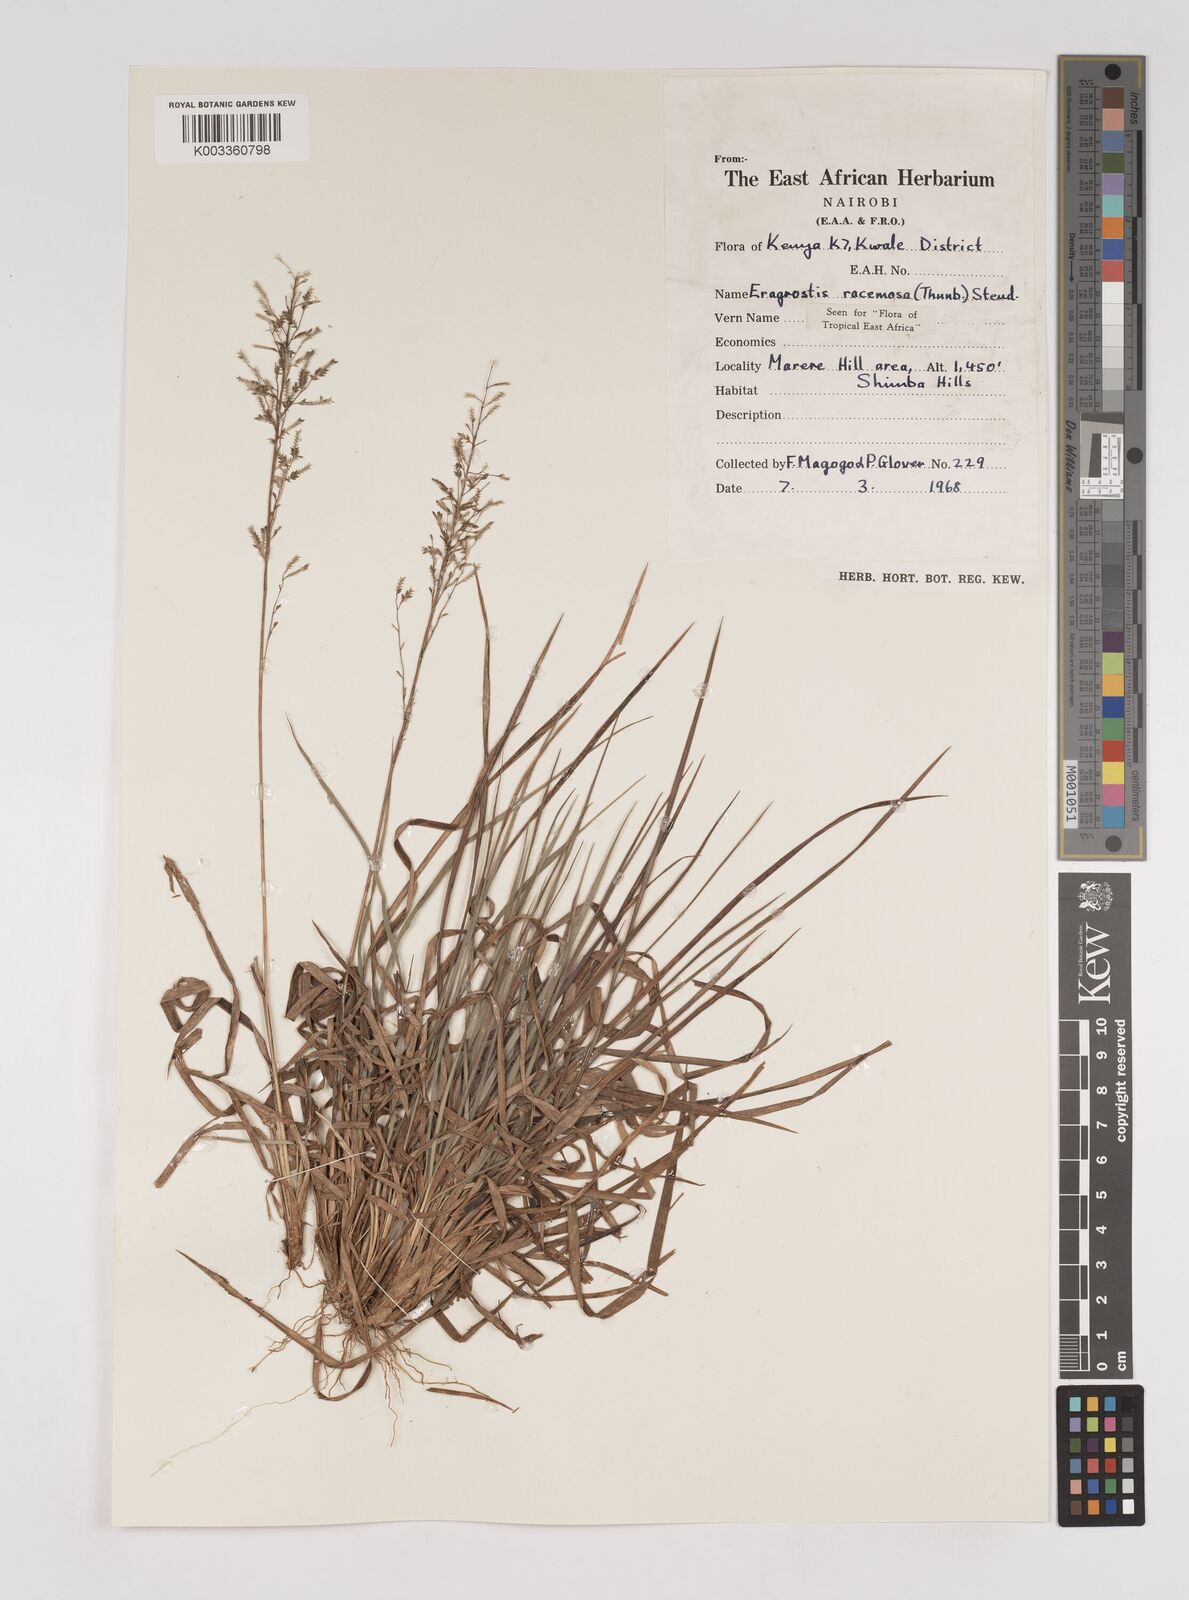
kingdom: Plantae
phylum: Tracheophyta
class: Liliopsida
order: Poales
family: Poaceae
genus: Eragrostis
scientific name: Eragrostis racemosa
